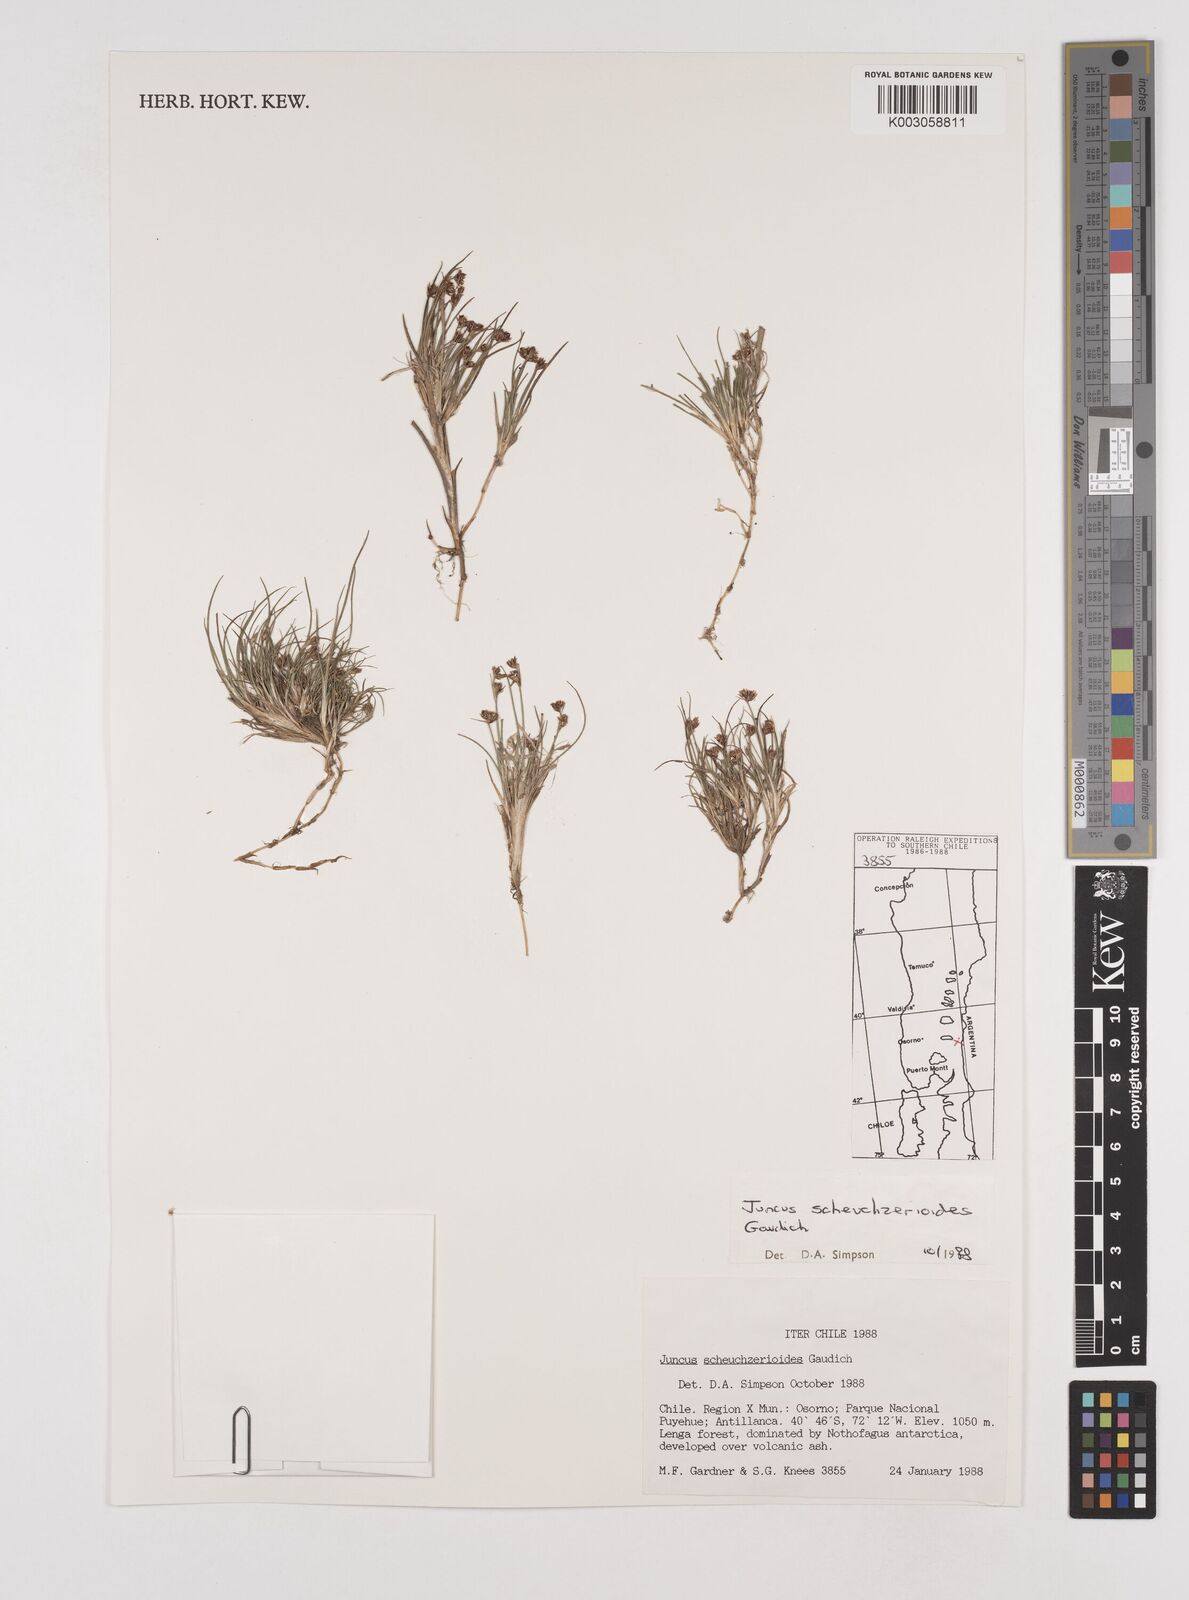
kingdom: Plantae
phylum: Tracheophyta
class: Liliopsida
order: Poales
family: Juncaceae
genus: Juncus
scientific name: Juncus scheuchzerioides
